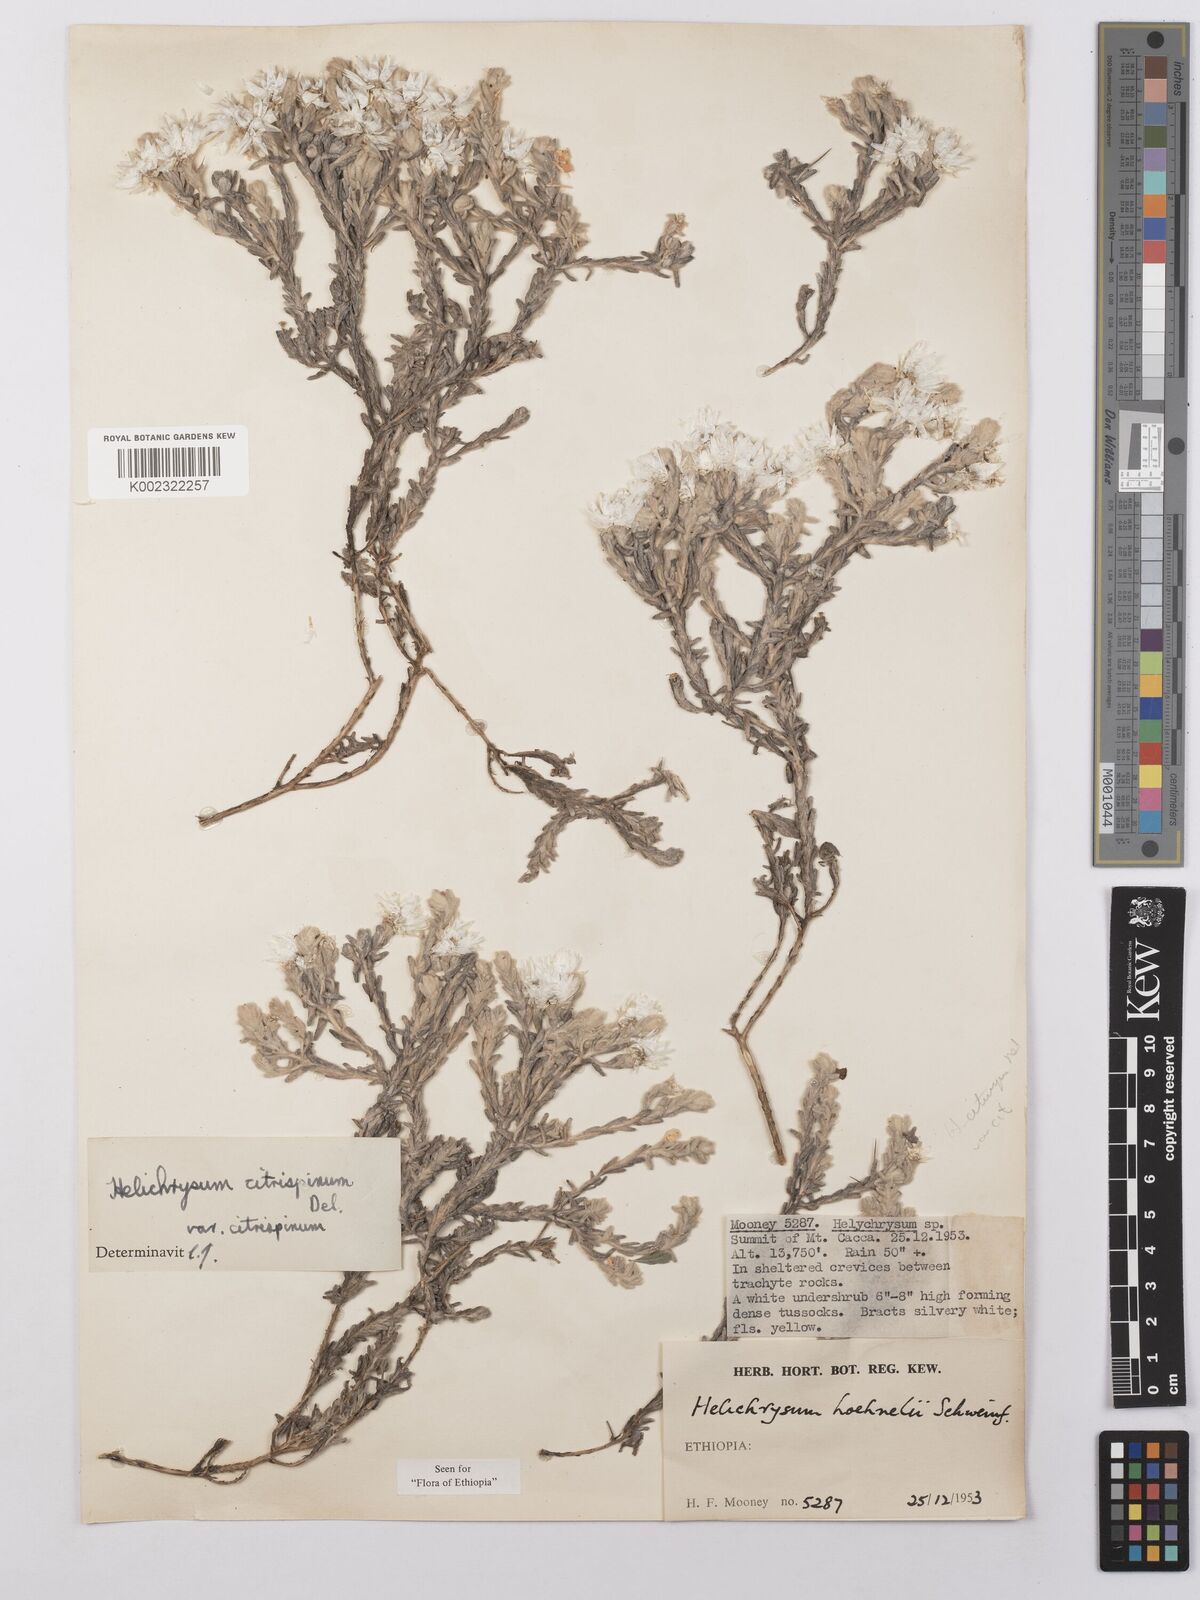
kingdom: Plantae
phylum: Tracheophyta
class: Magnoliopsida
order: Asterales
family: Asteraceae
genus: Helichrysum
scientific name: Helichrysum citrispinum
